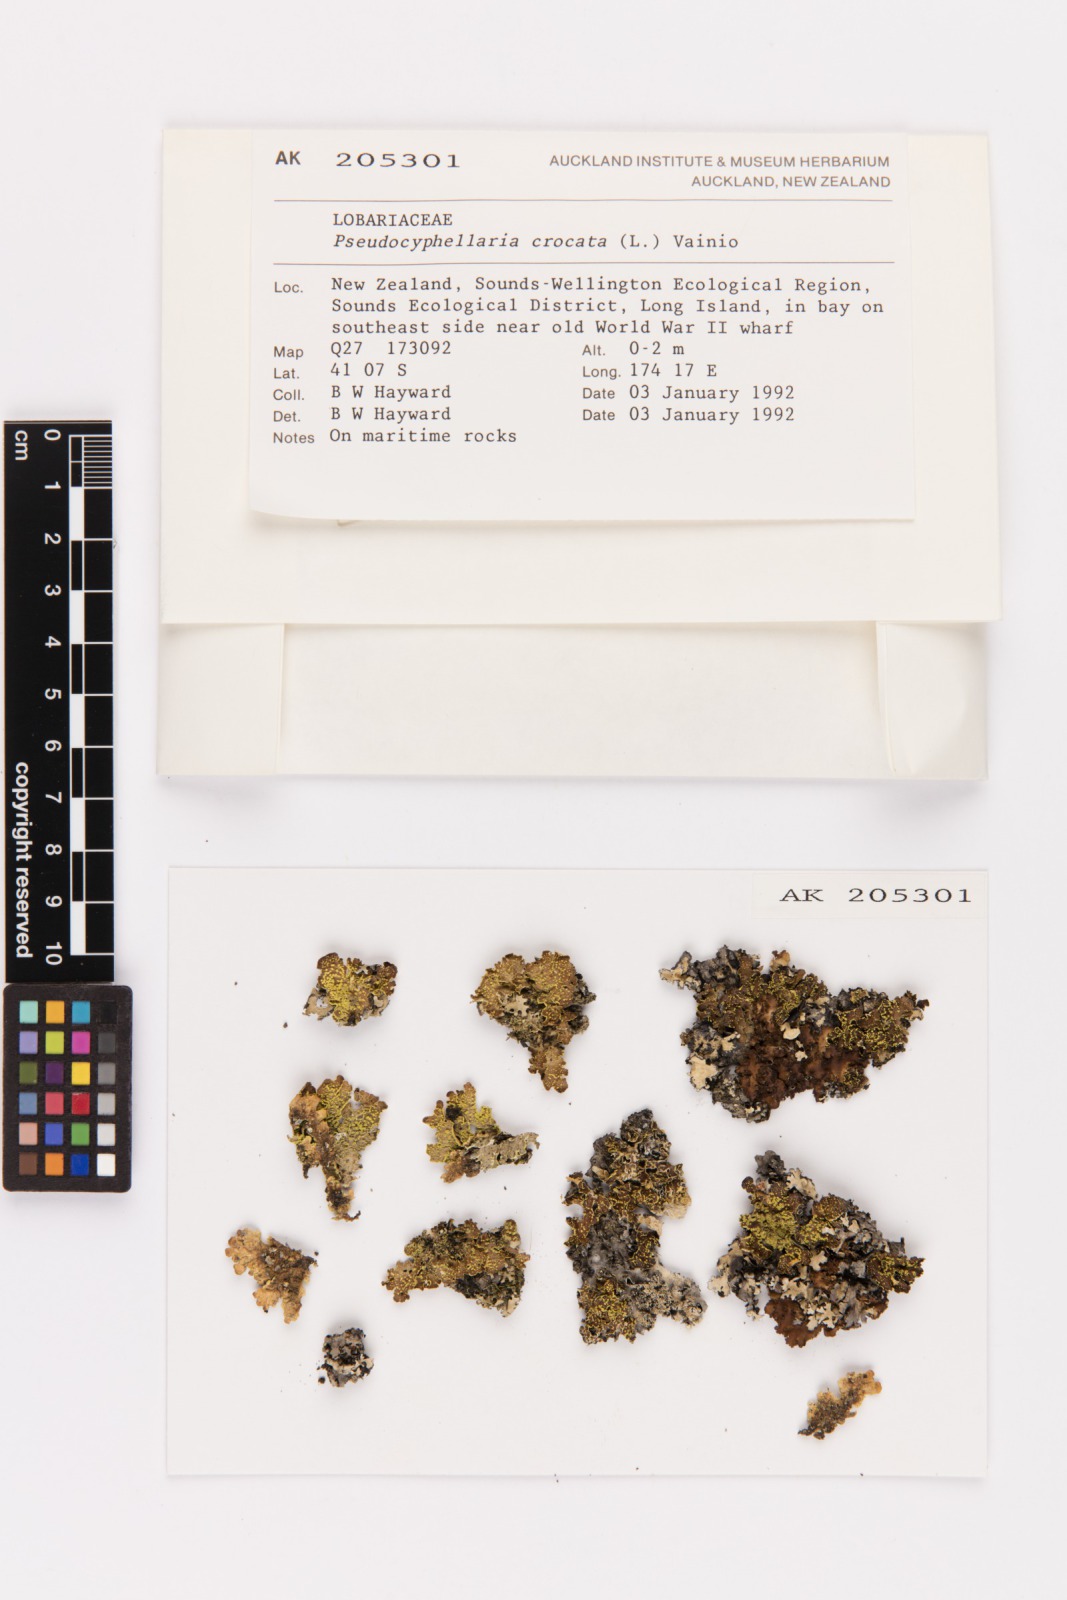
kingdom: Fungi
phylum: Ascomycota
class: Lecanoromycetes
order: Peltigerales
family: Lobariaceae
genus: Pseudocyphellaria
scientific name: Pseudocyphellaria crocata
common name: Golden specklebelly
